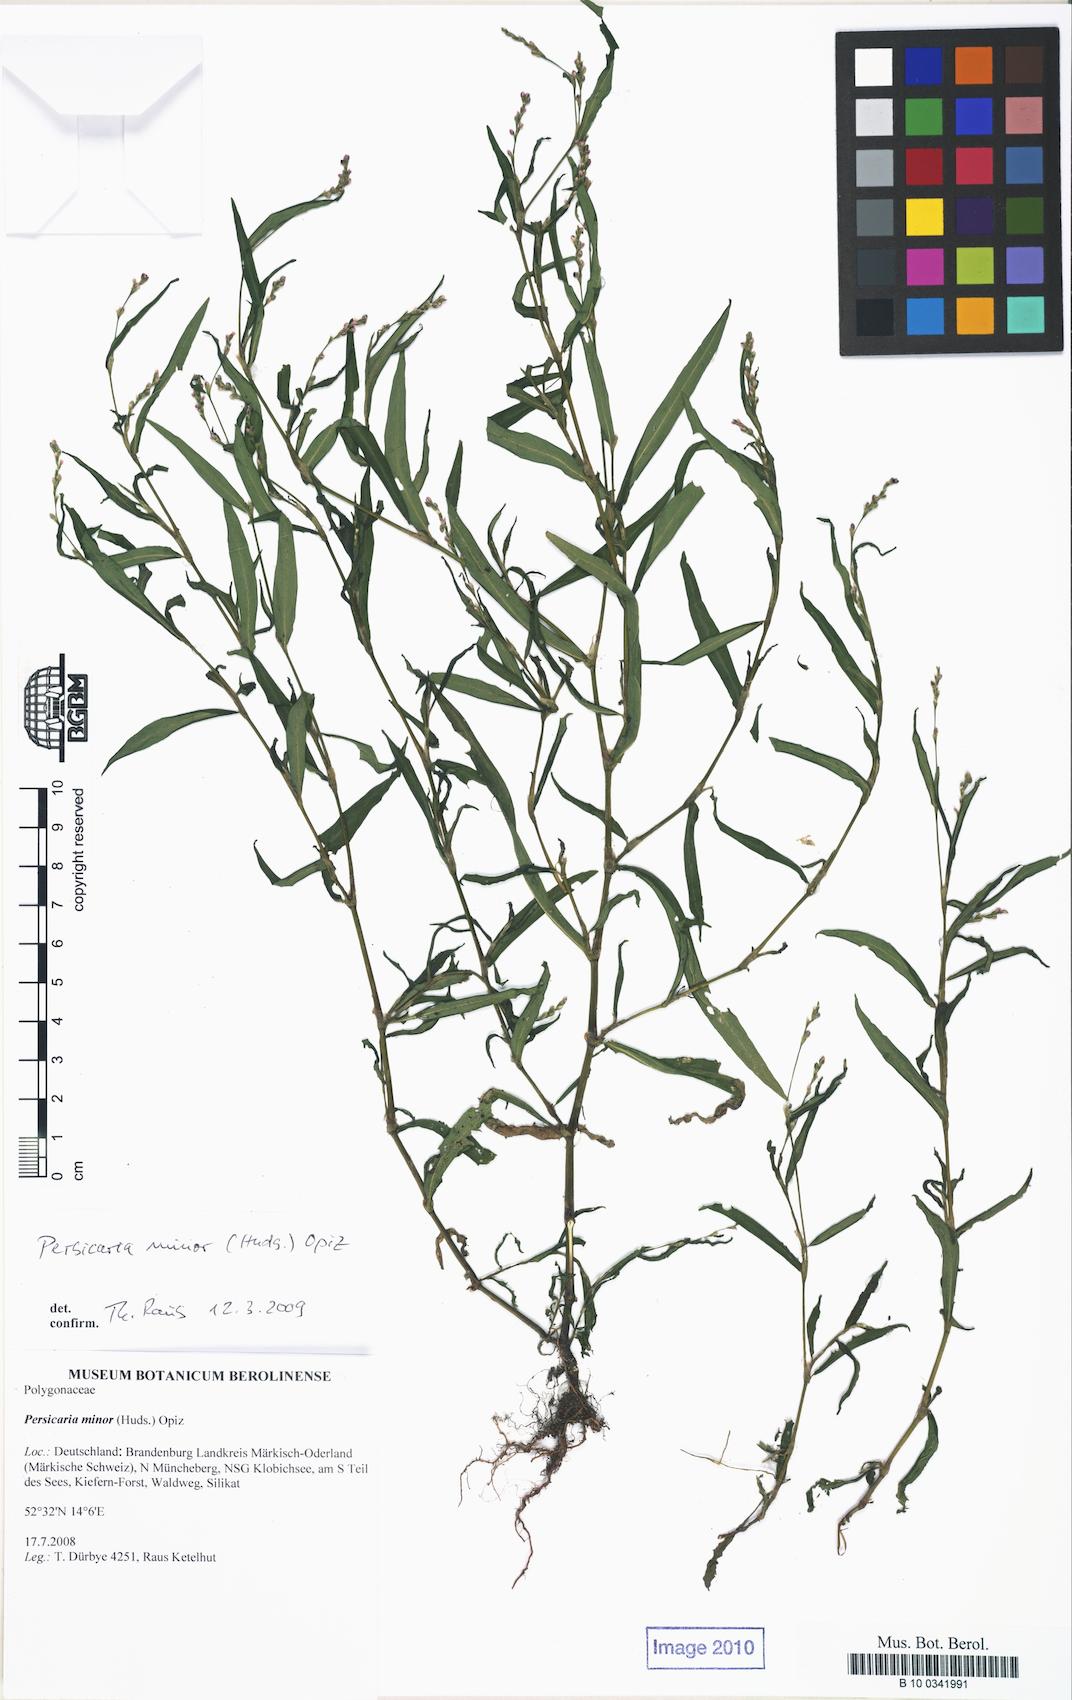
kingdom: Plantae
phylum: Tracheophyta
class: Magnoliopsida
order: Caryophyllales
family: Polygonaceae
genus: Persicaria
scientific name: Persicaria minor
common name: Small water-pepper
